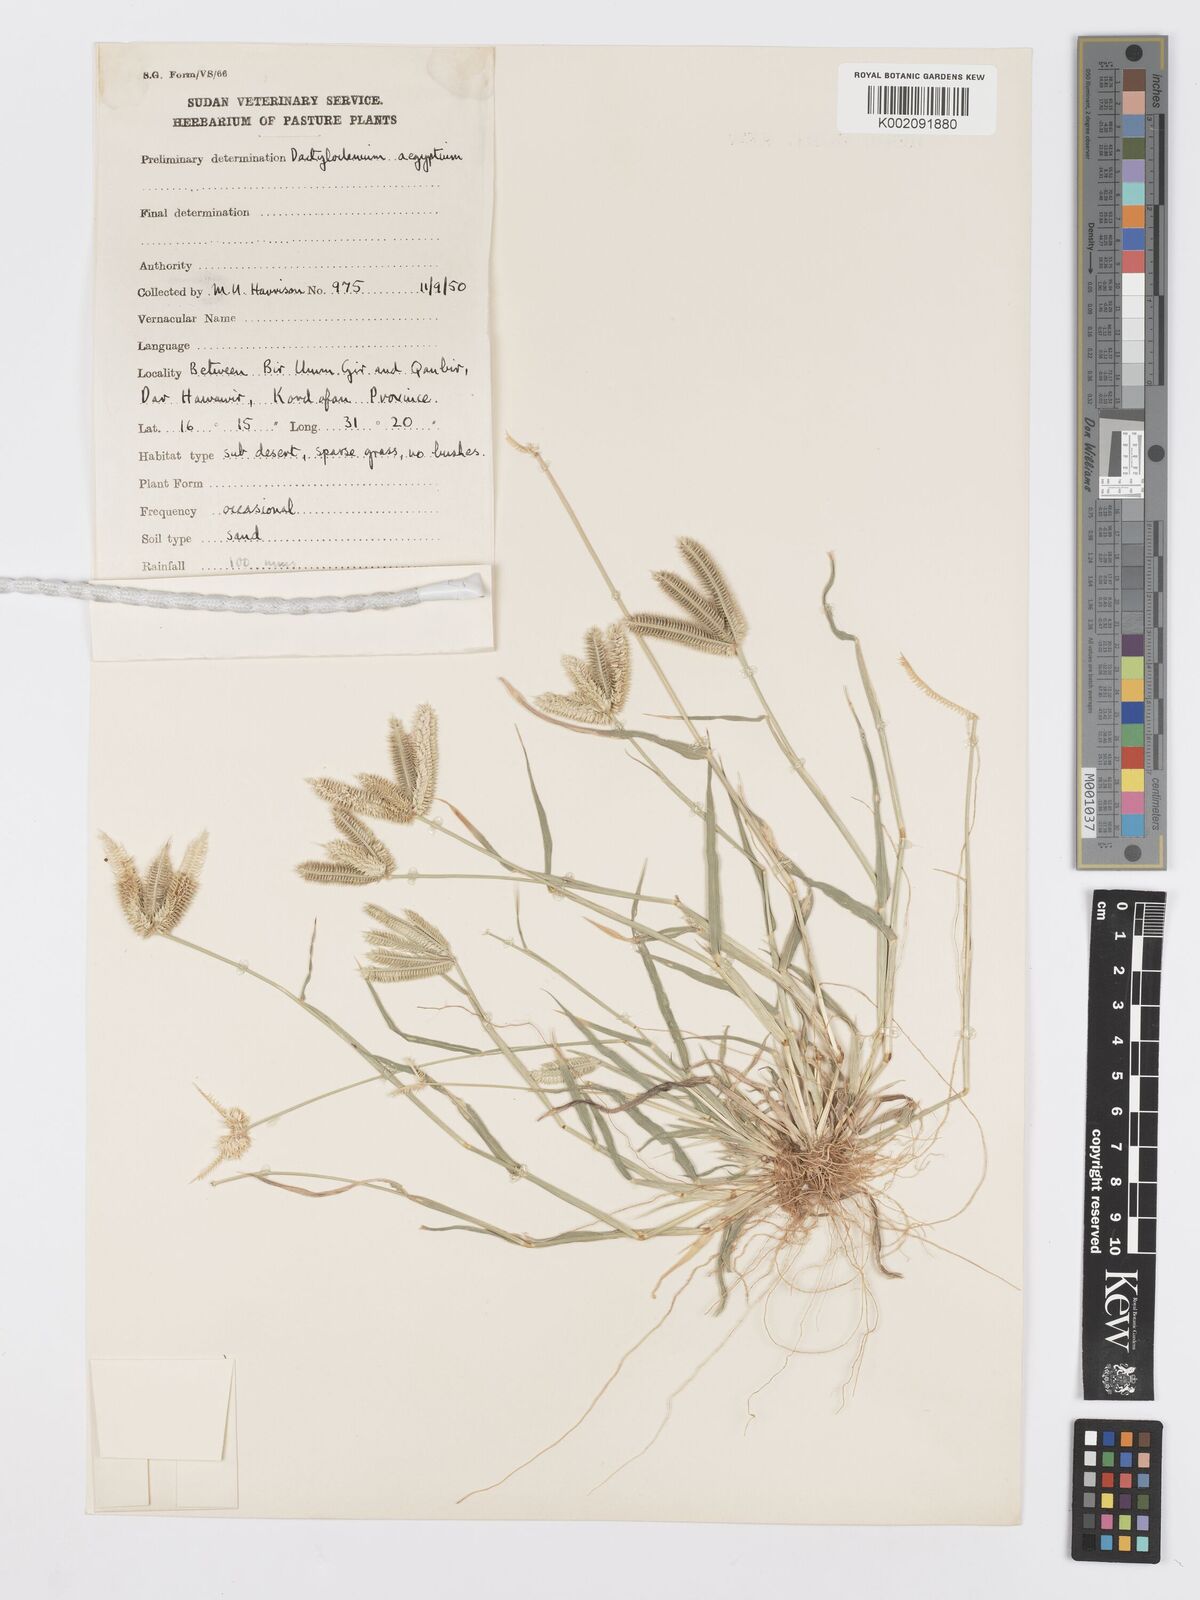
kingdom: Plantae
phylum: Tracheophyta
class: Liliopsida
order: Poales
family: Poaceae
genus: Dactyloctenium
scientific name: Dactyloctenium aegyptium
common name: Egyptian grass
